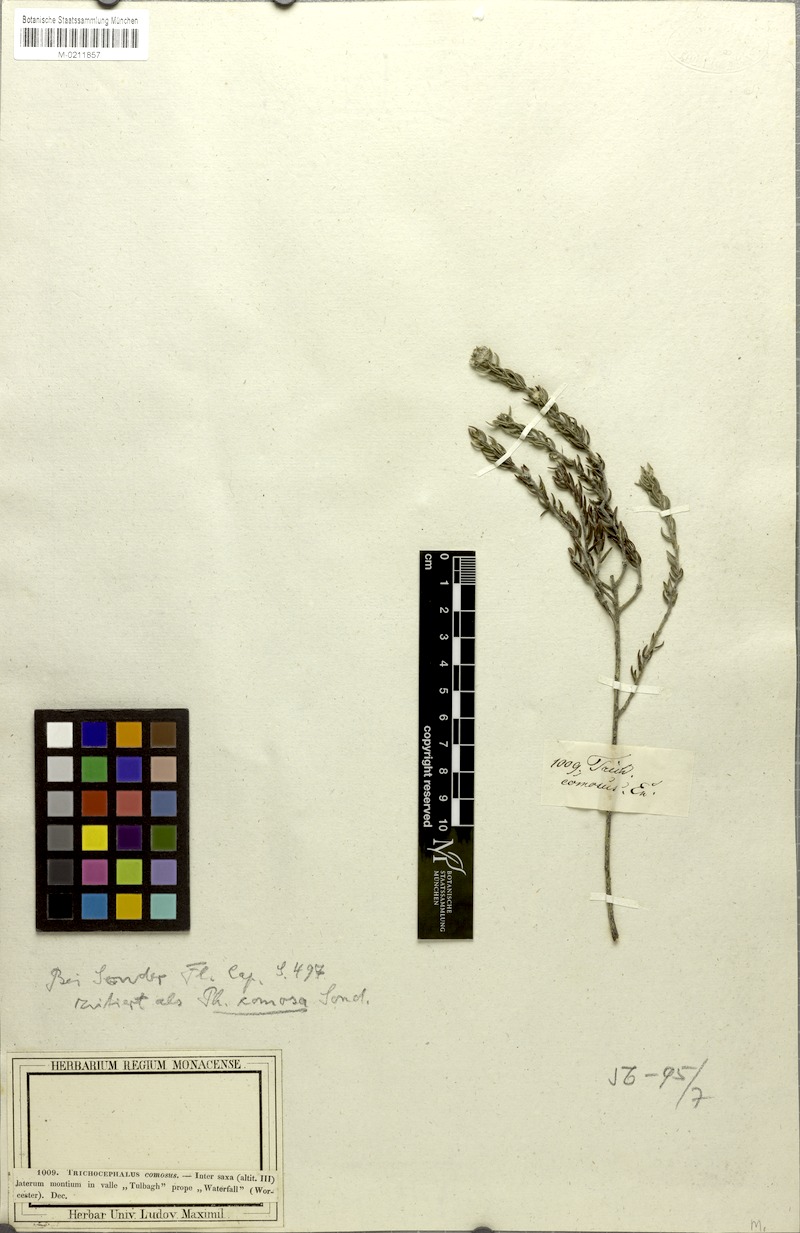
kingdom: Plantae
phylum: Tracheophyta
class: Magnoliopsida
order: Rosales
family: Rhamnaceae
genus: Phylica
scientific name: Phylica comosa
